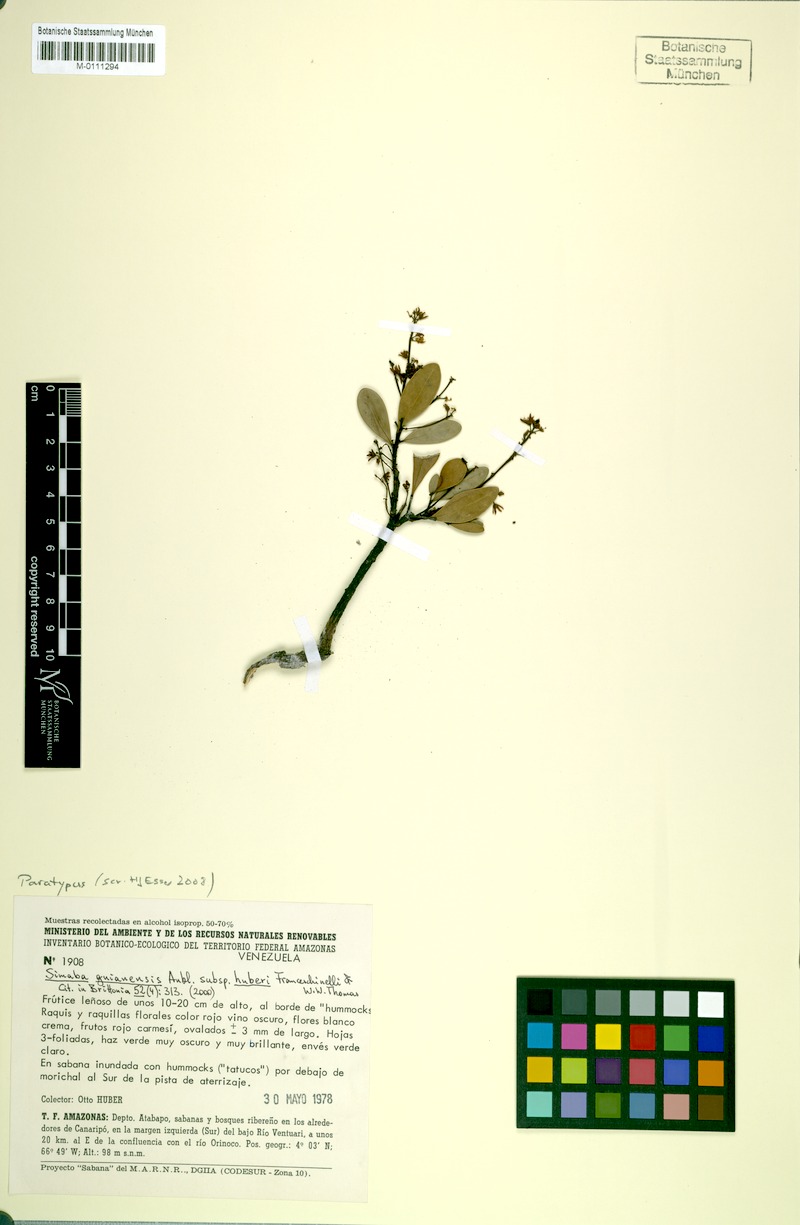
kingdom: Plantae
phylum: Tracheophyta
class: Magnoliopsida
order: Sapindales
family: Simaroubaceae
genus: Simaba
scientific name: Simaba guianensis
